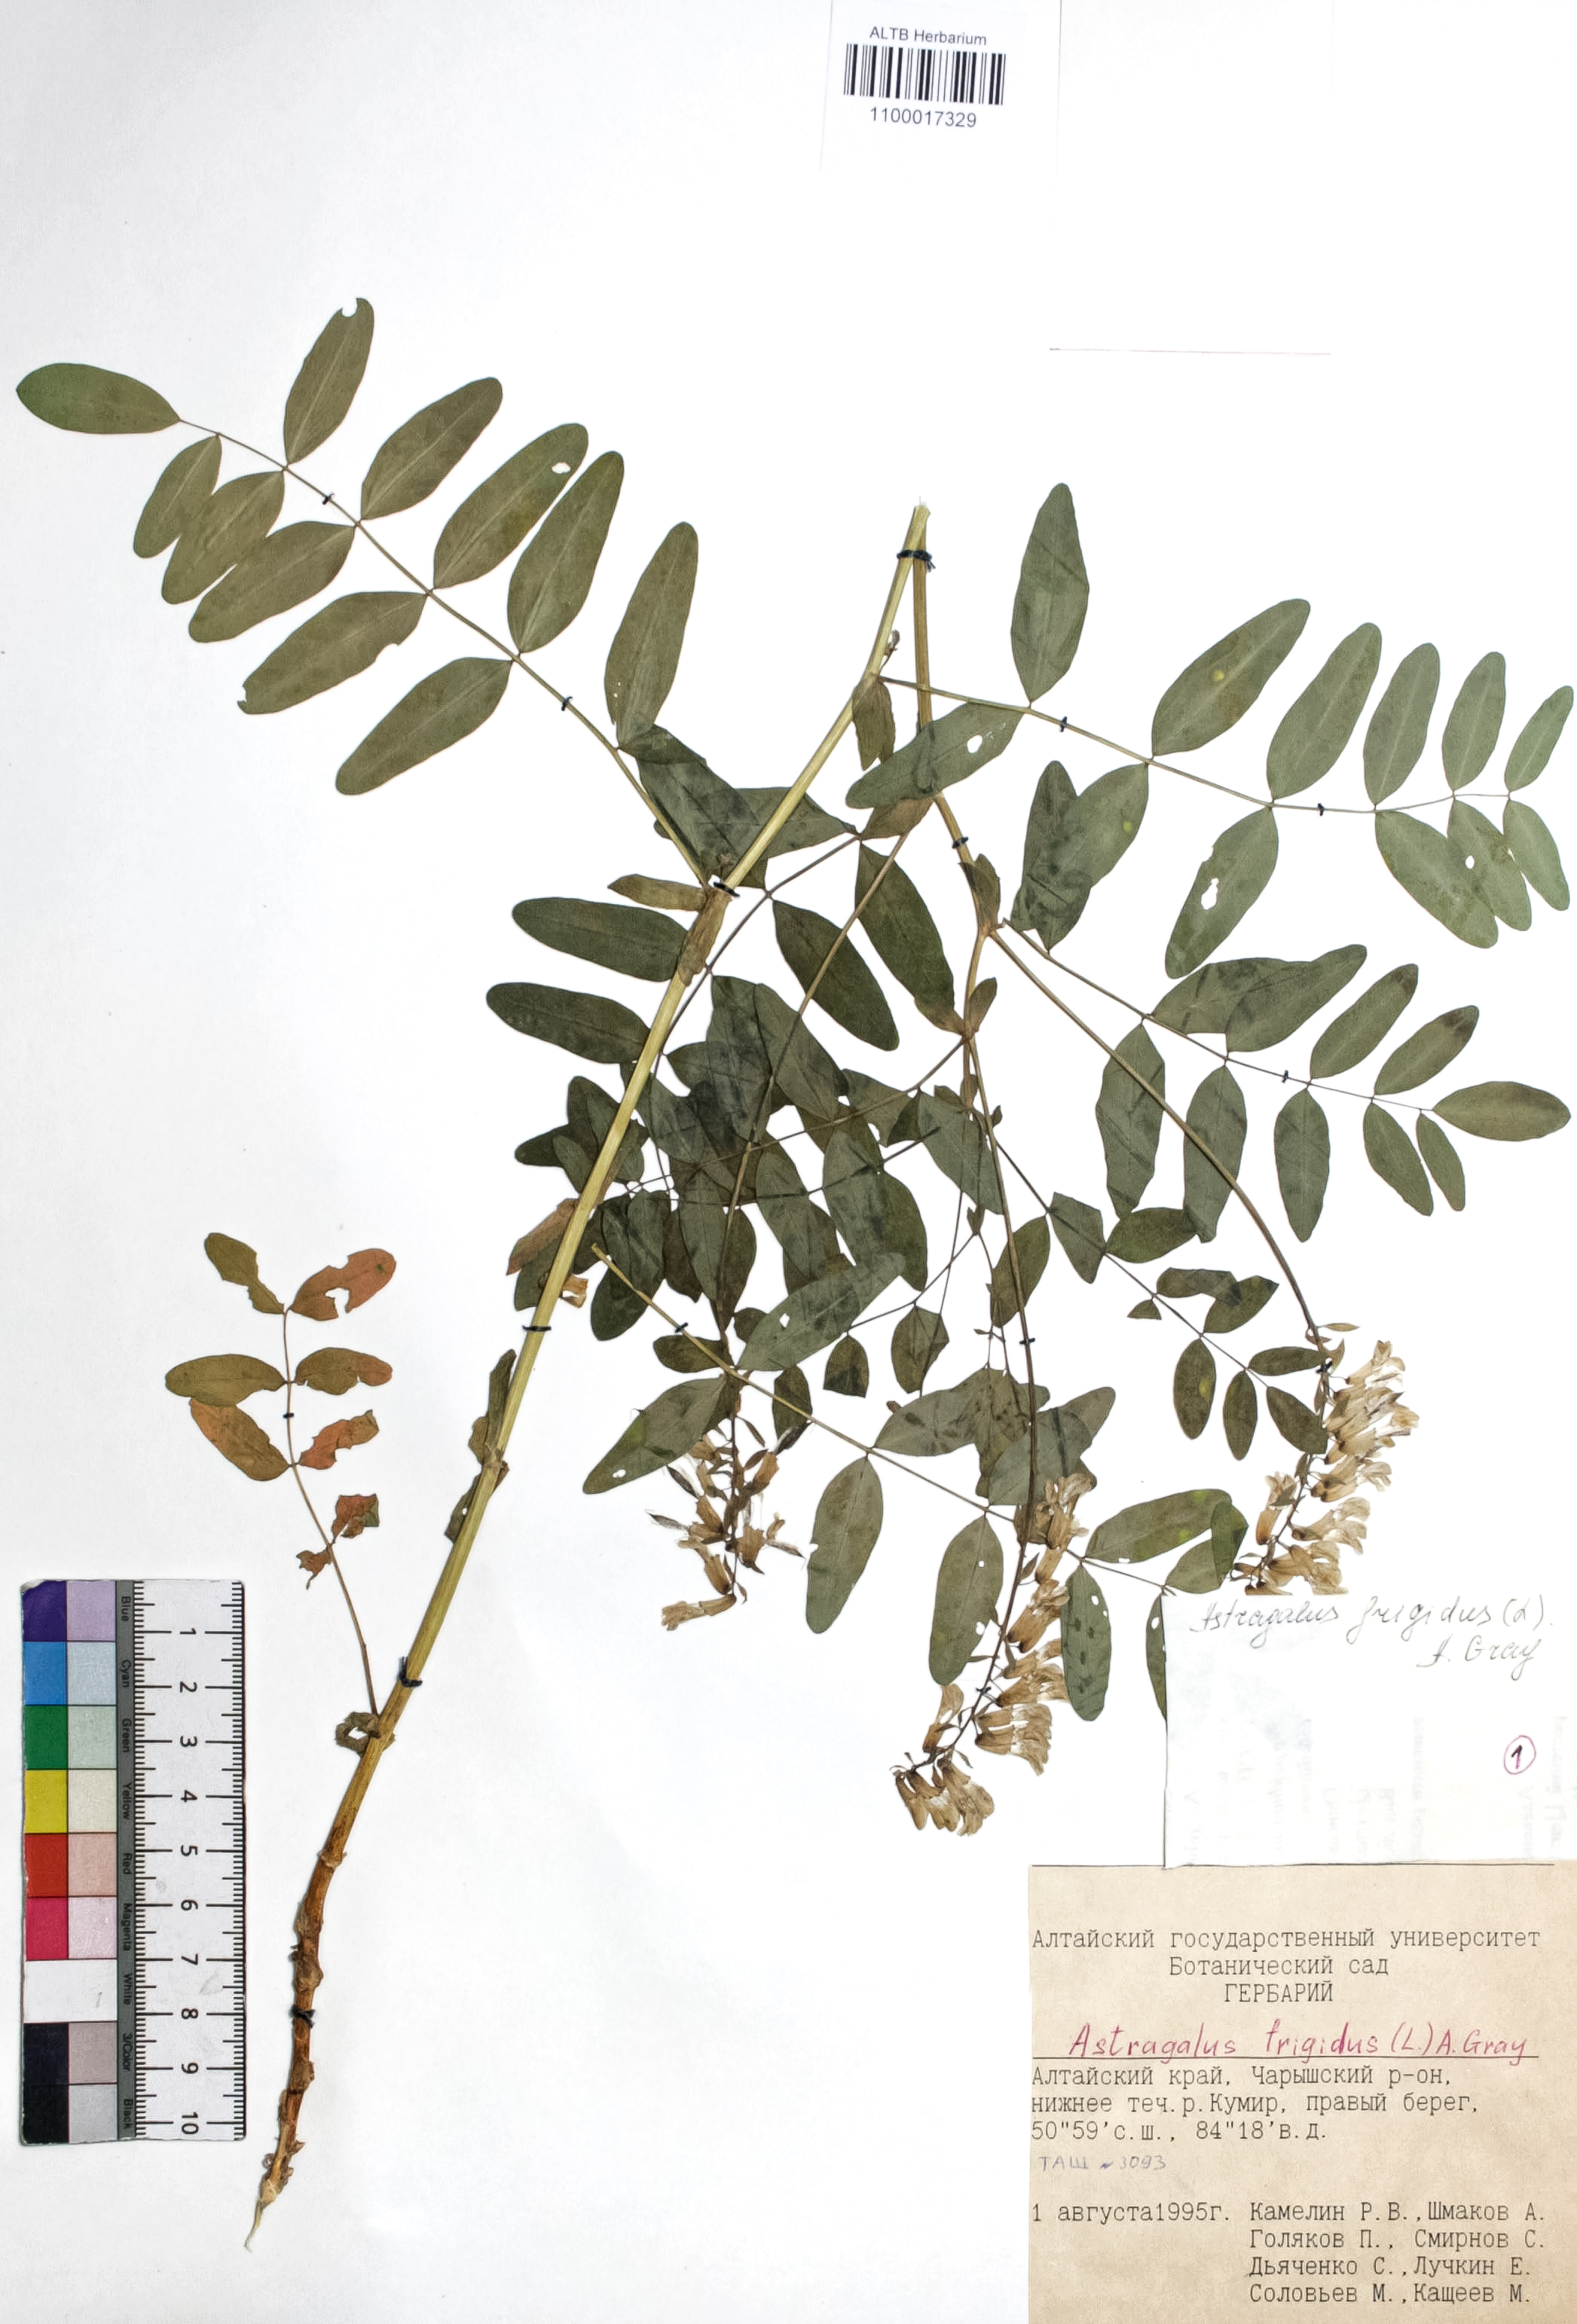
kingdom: Plantae
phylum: Tracheophyta
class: Magnoliopsida
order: Fabales
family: Fabaceae
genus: Astragalus
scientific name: Astragalus frigidus
